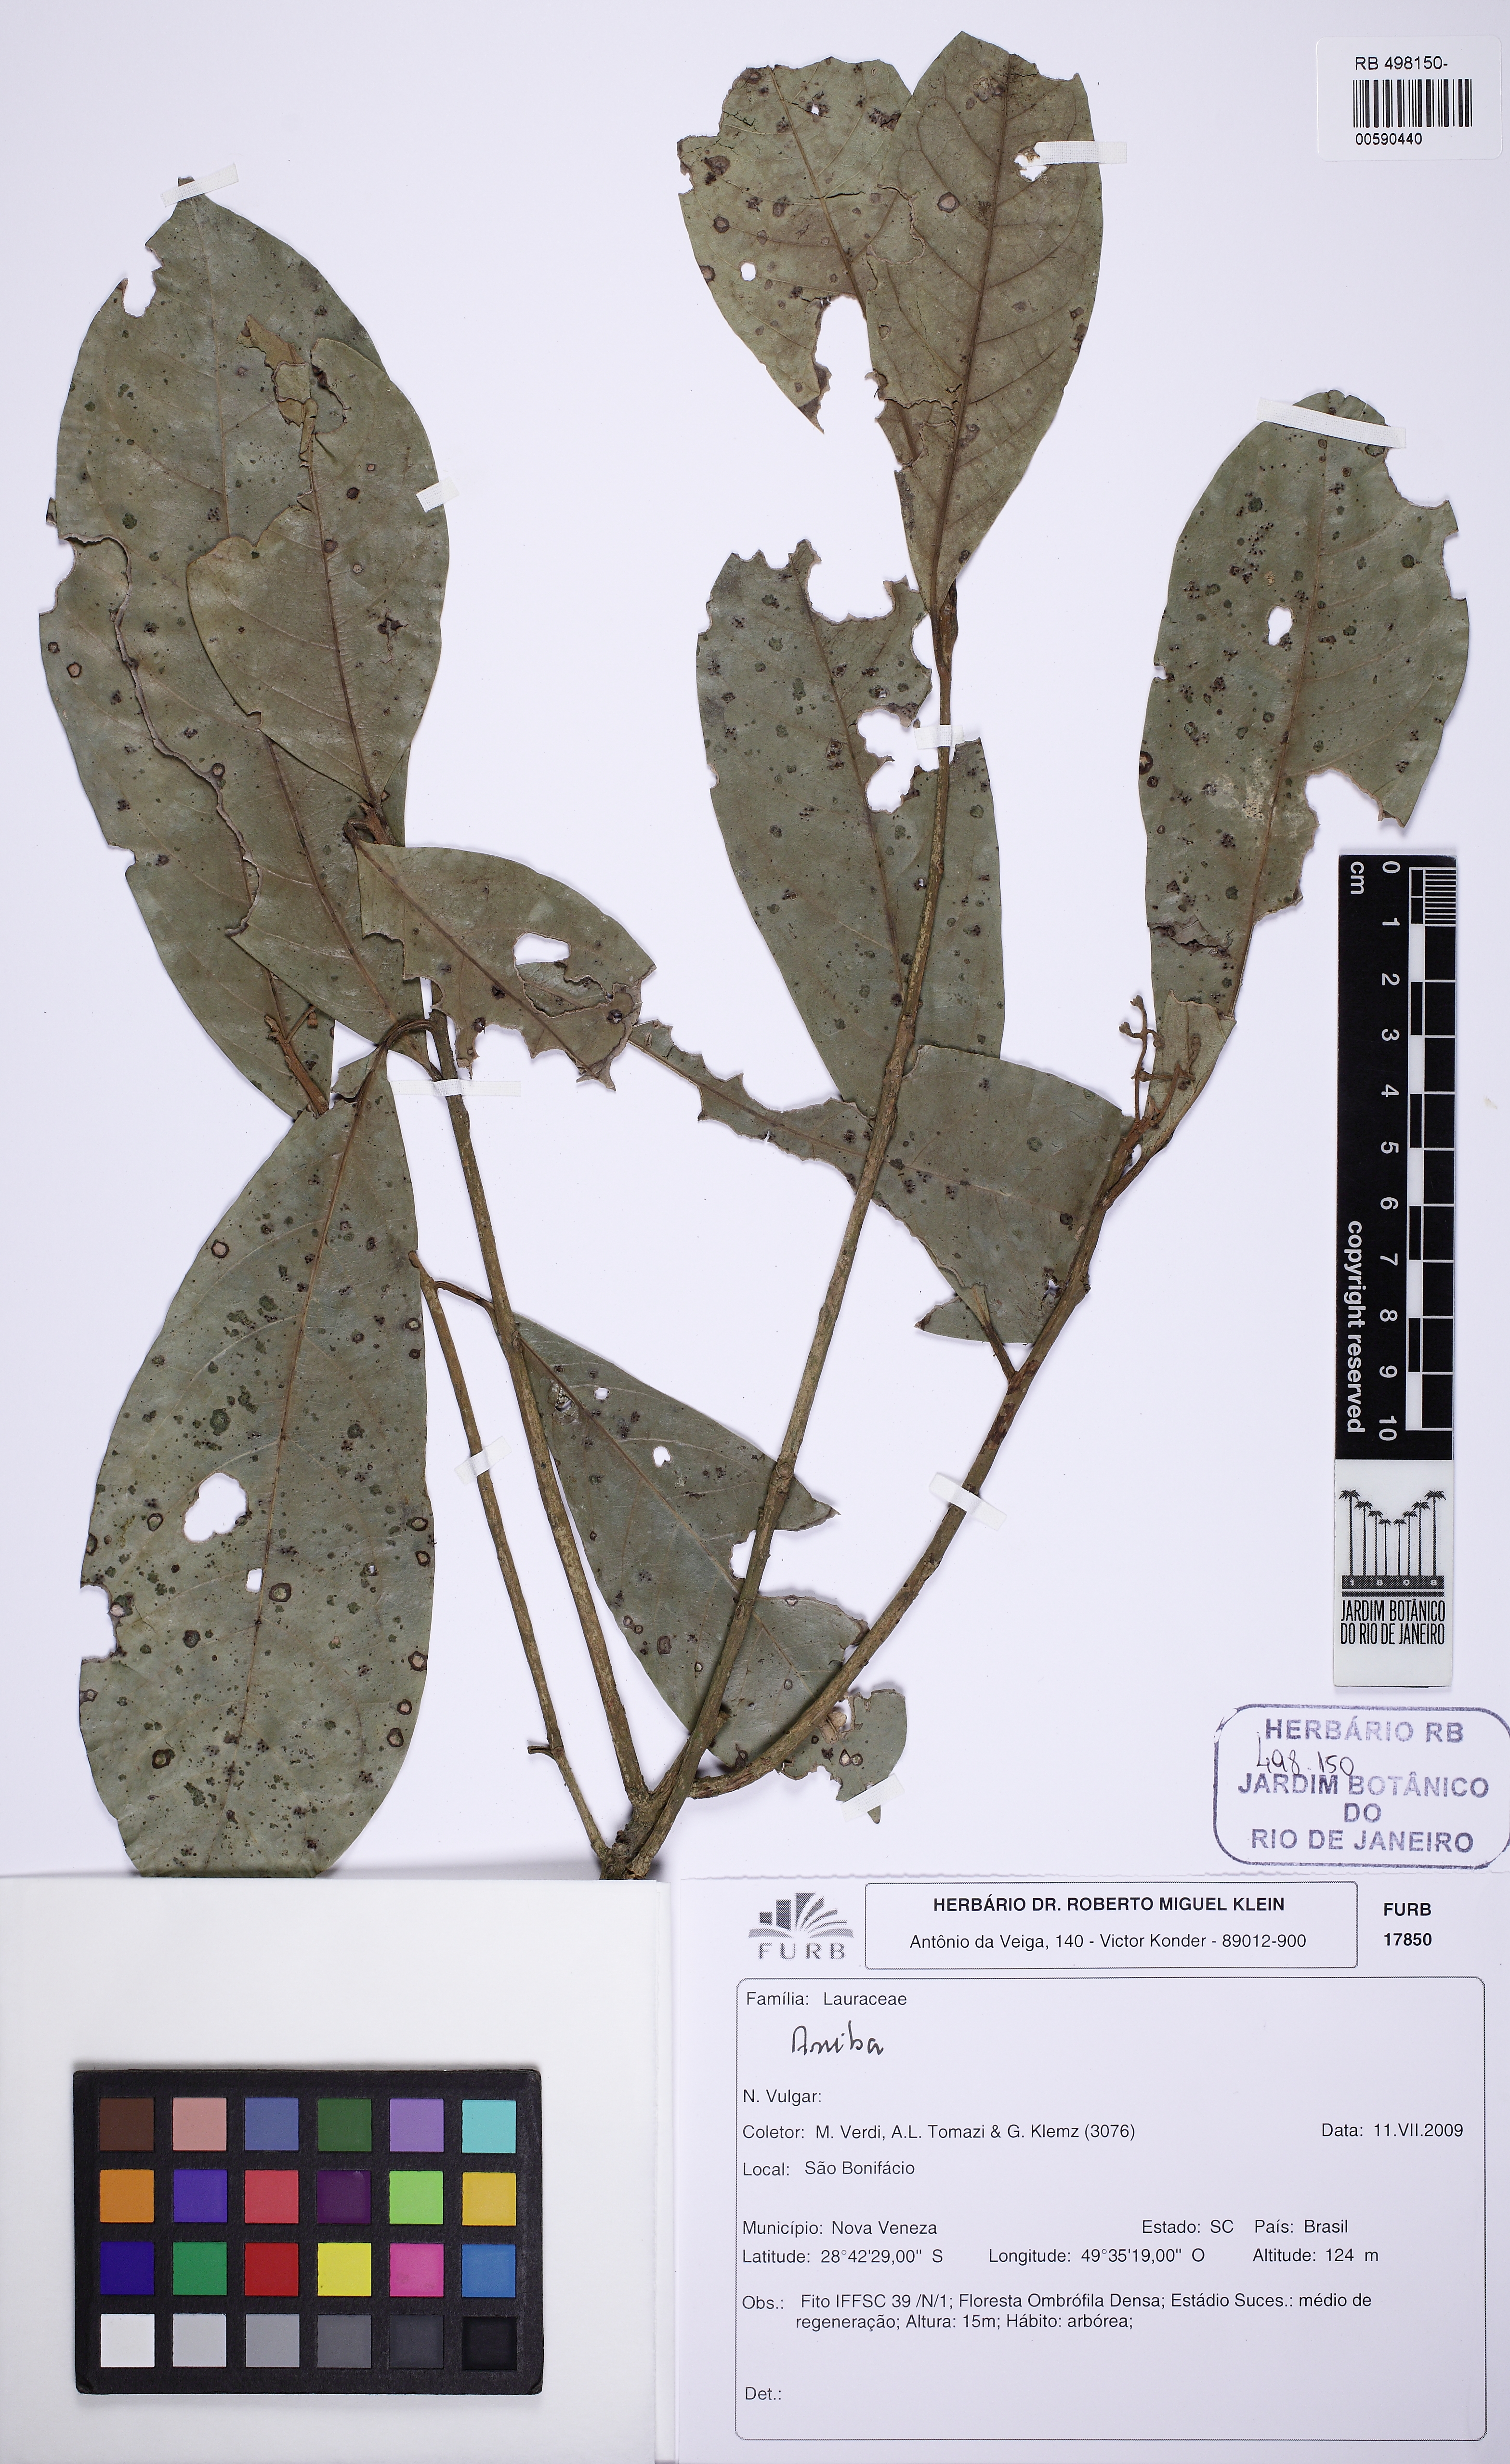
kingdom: Plantae
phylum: Tracheophyta
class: Magnoliopsida
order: Laurales
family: Lauraceae
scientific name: Lauraceae
